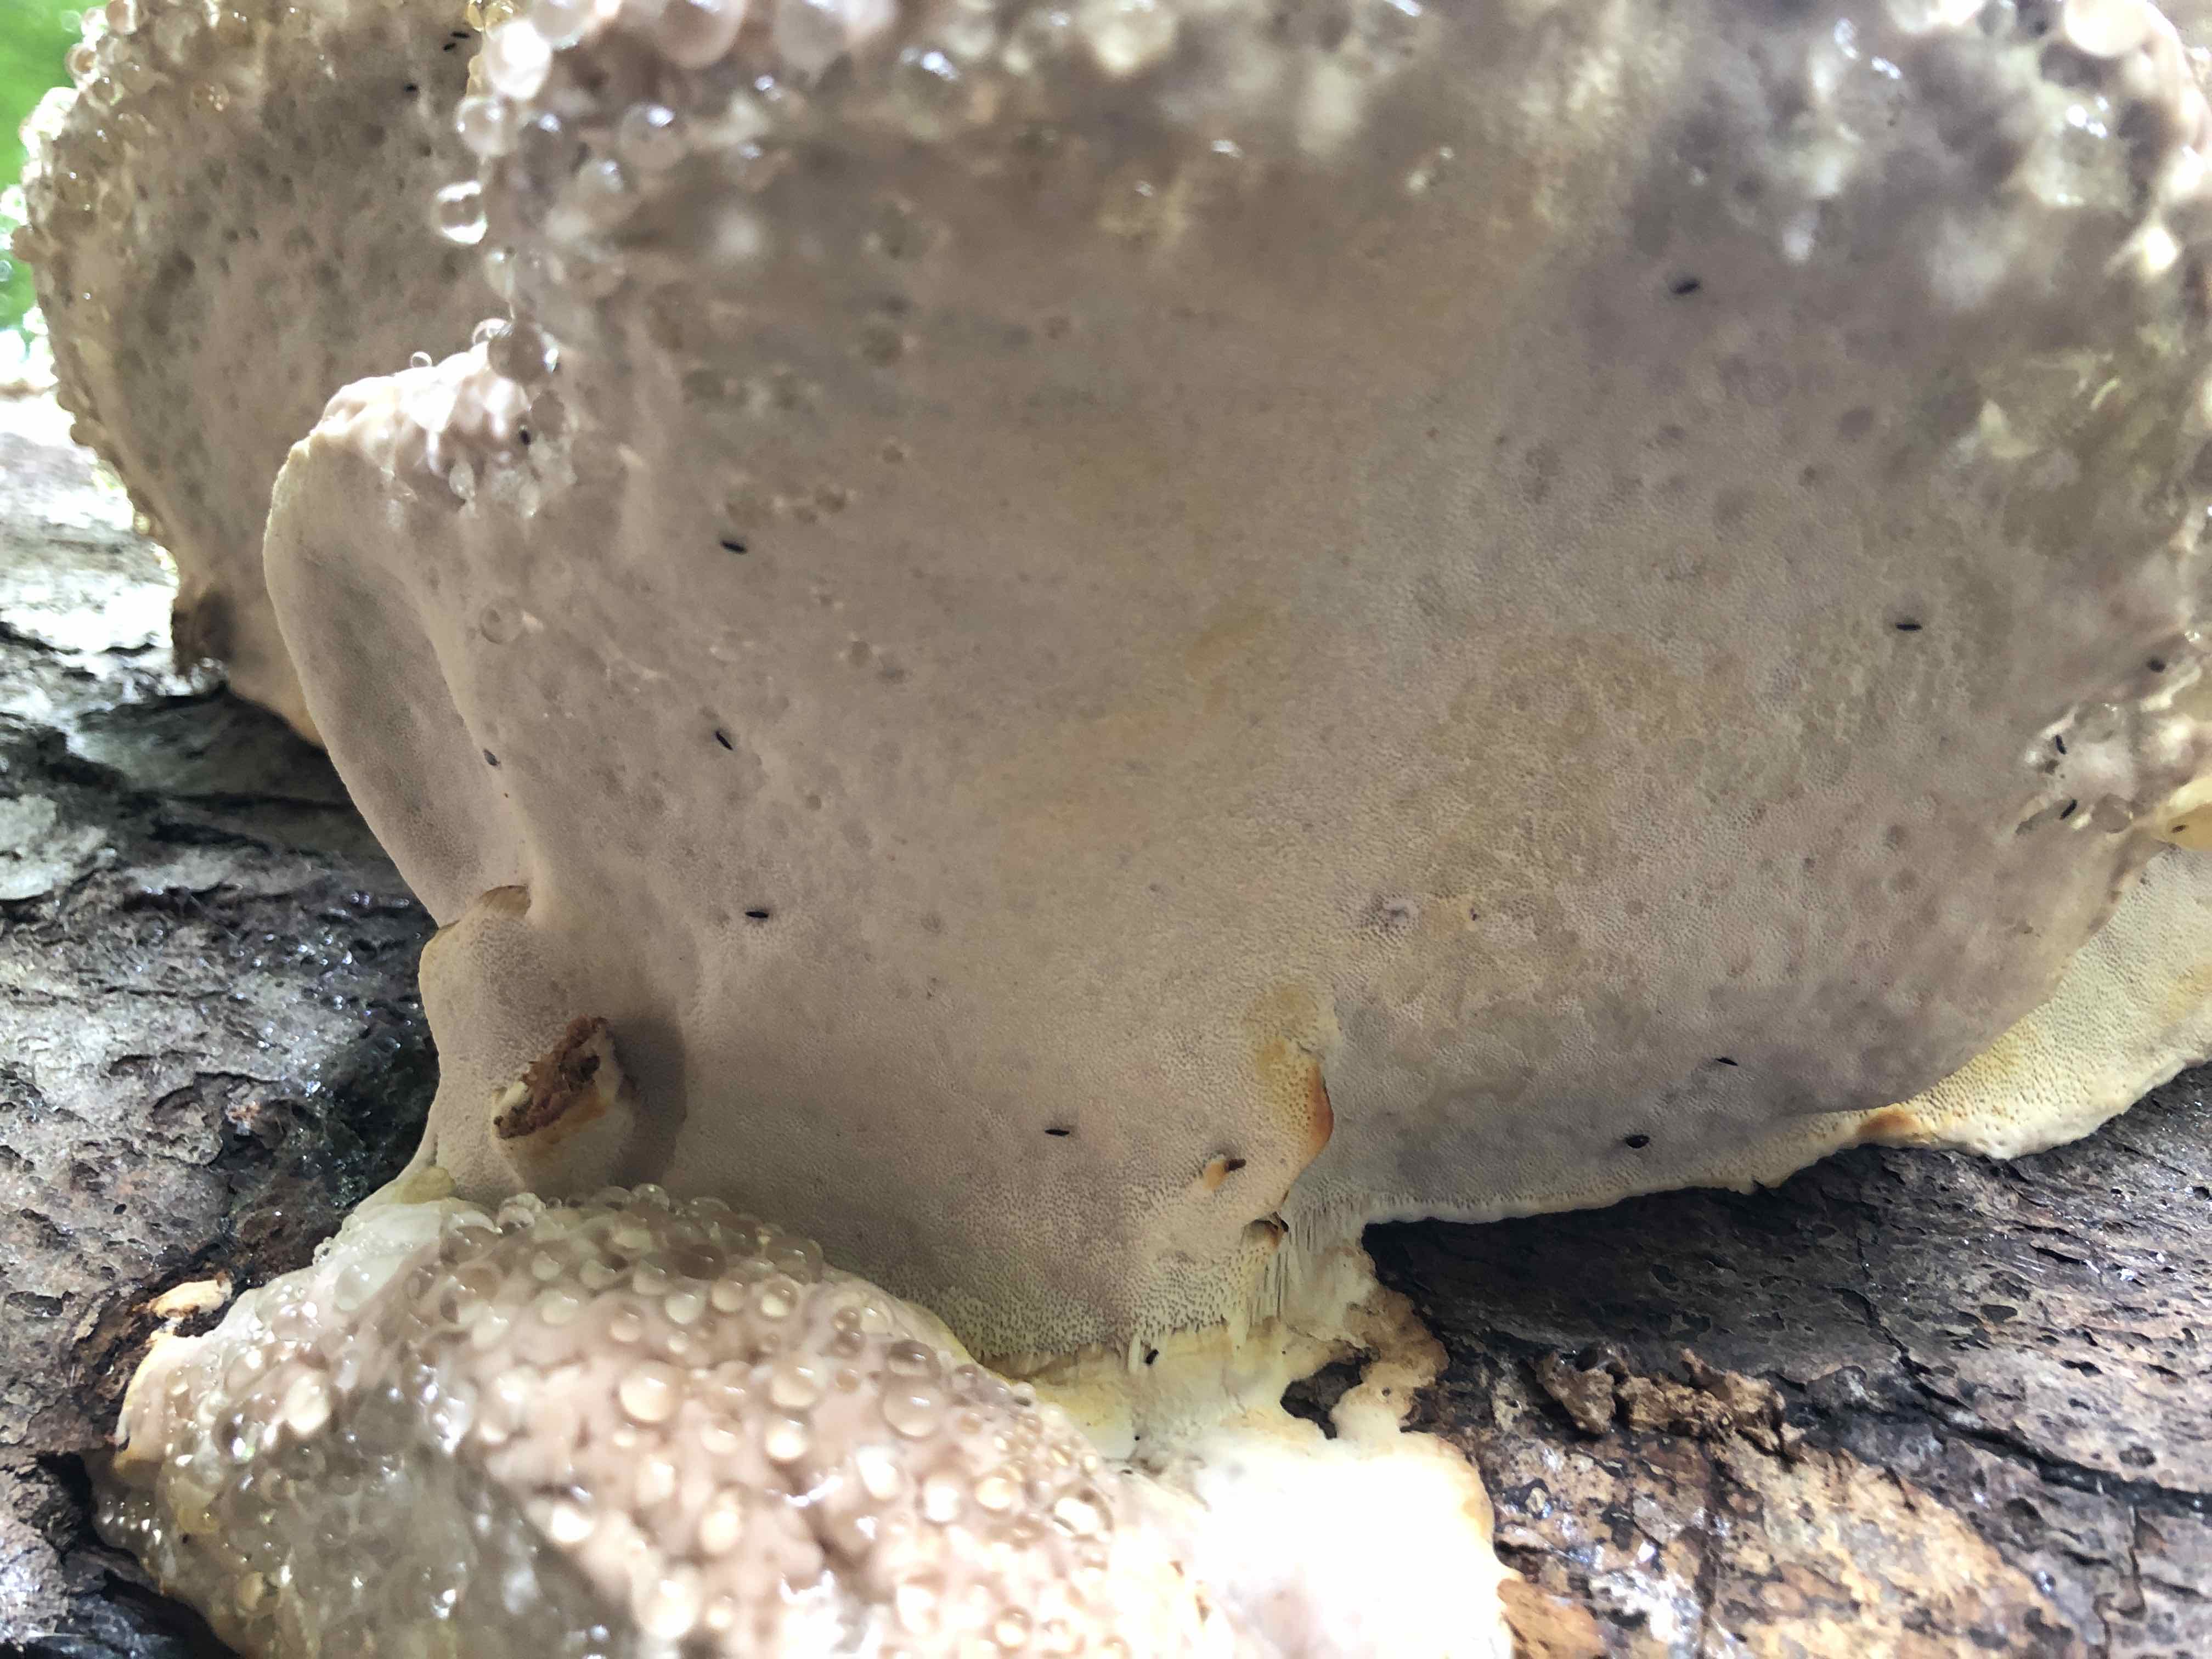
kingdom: Fungi
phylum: Basidiomycota
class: Agaricomycetes
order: Polyporales
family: Fomitopsidaceae
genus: Fomitopsis
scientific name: Fomitopsis pinicola
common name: randbæltet hovporesvamp
